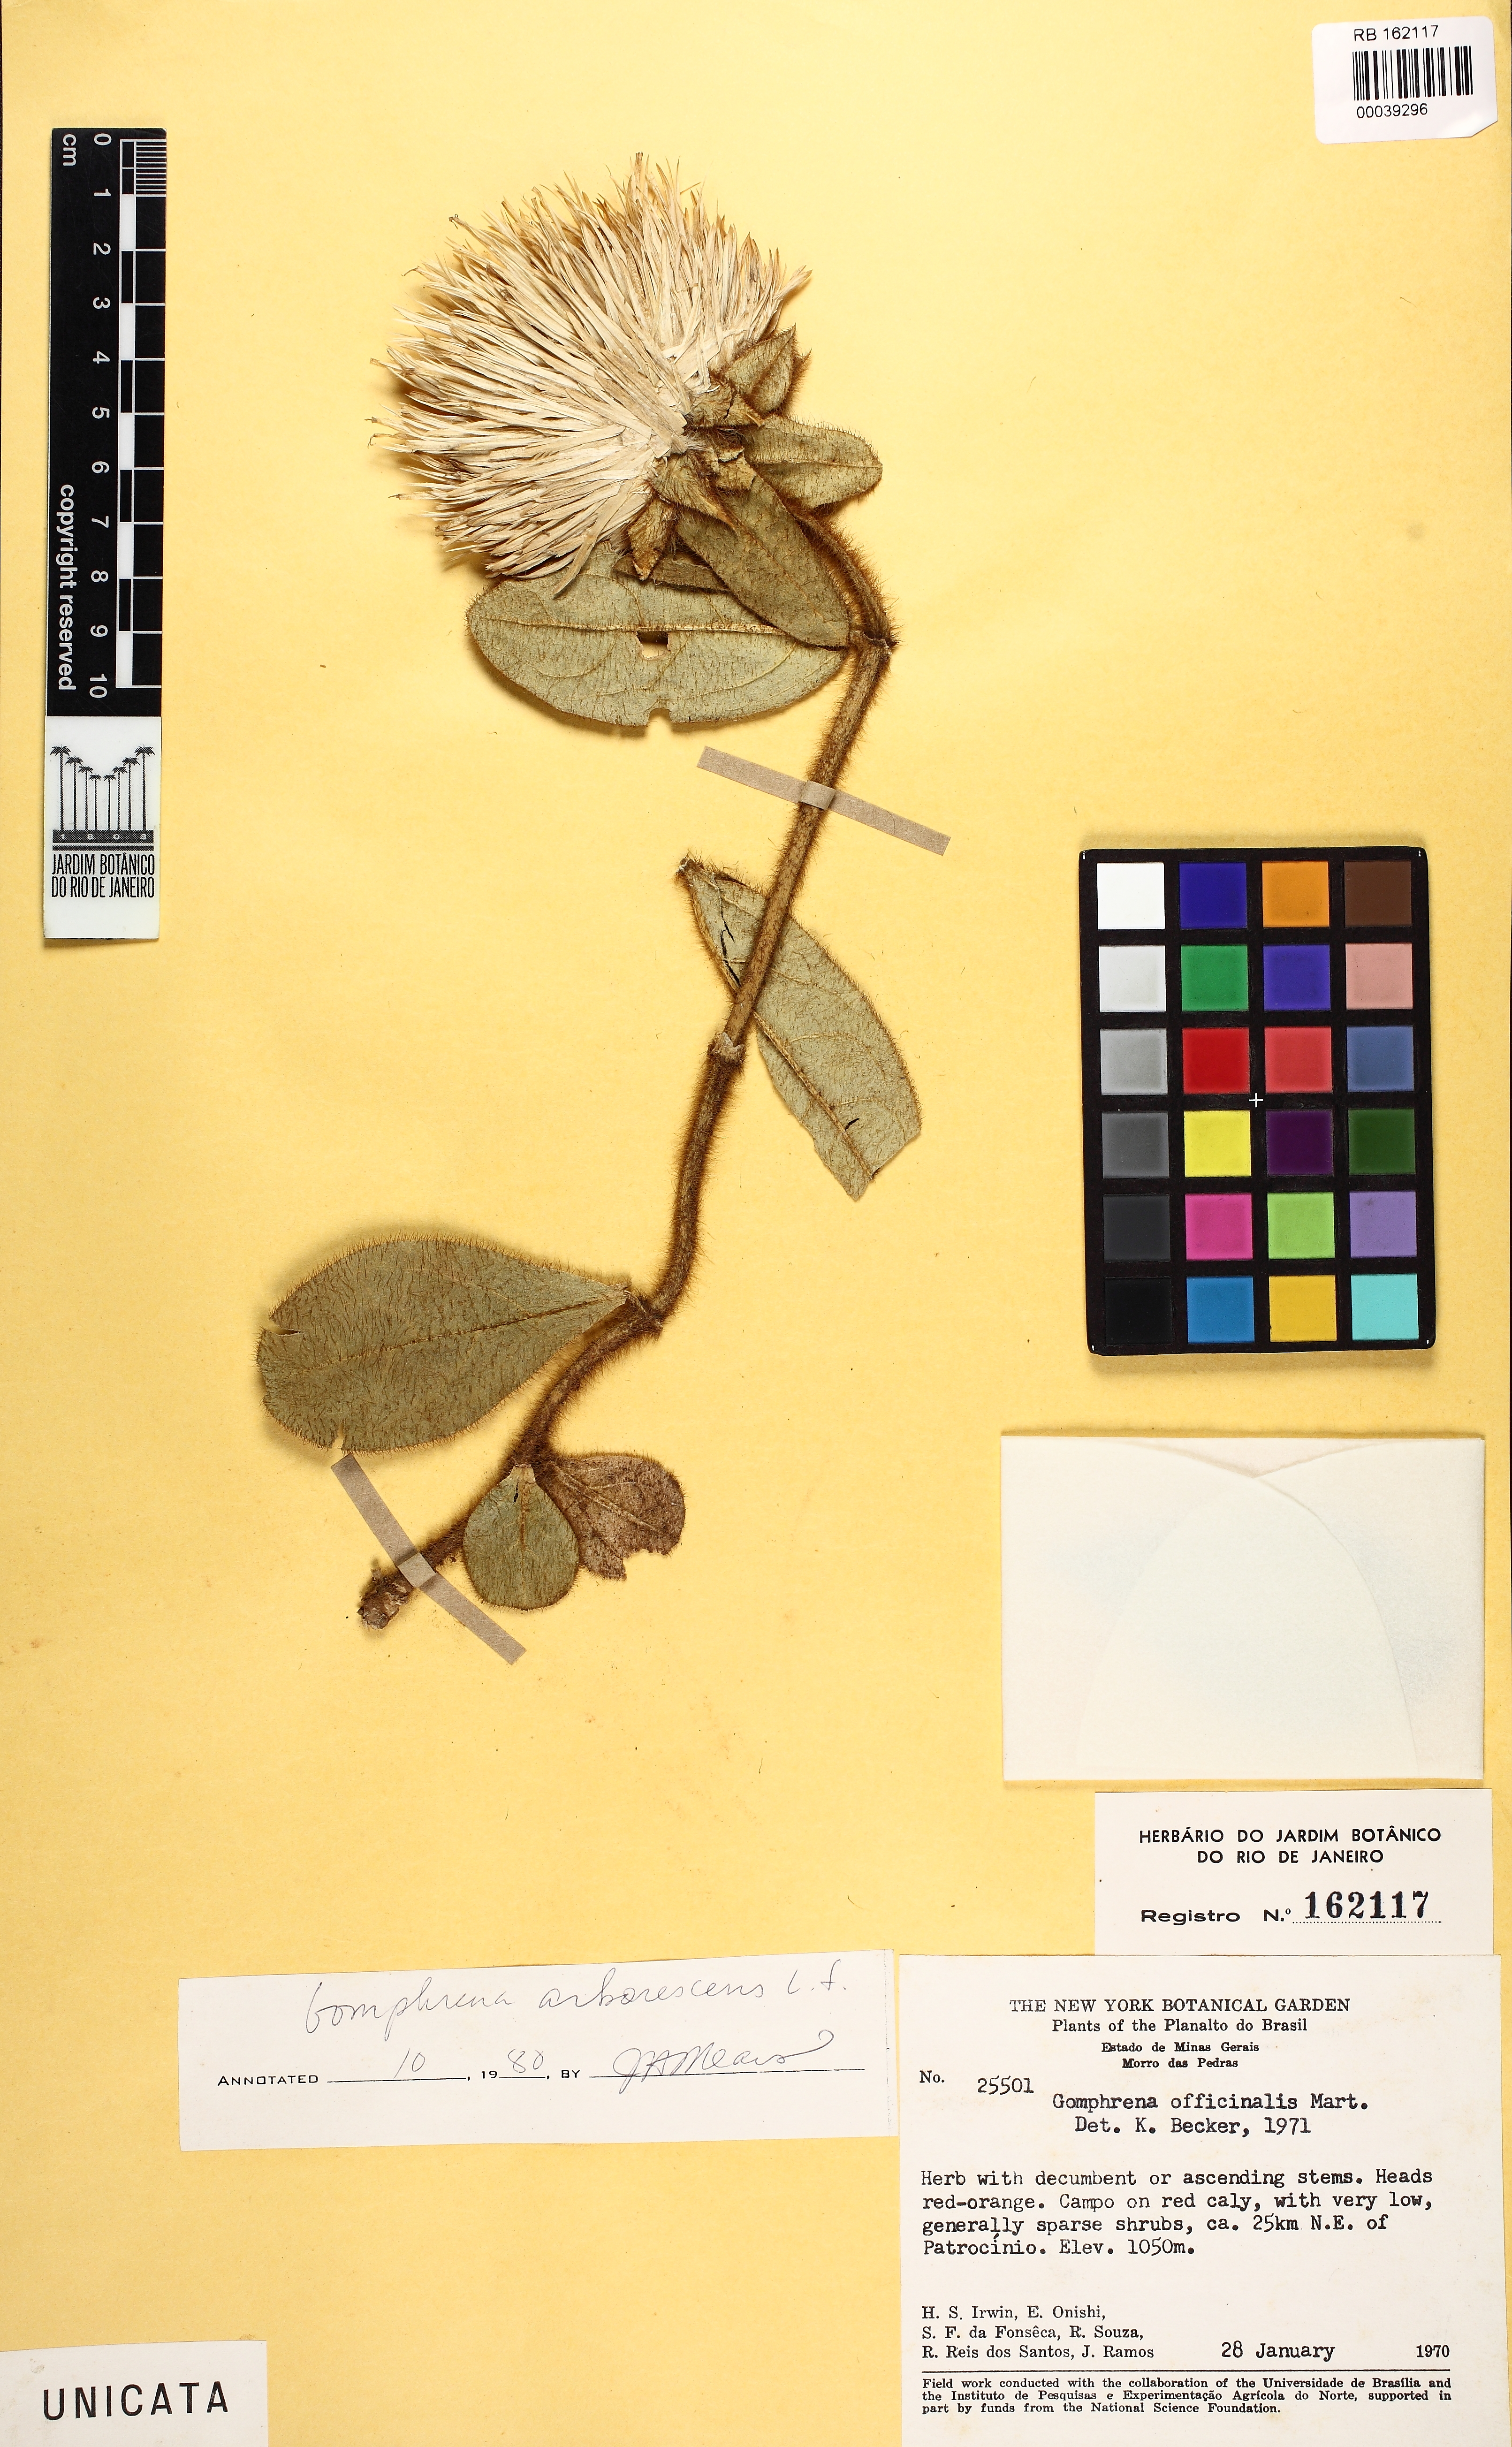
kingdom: Plantae
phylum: Tracheophyta
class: Magnoliopsida
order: Caryophyllales
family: Amaranthaceae
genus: Gomphrena
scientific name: Gomphrena arborescens
